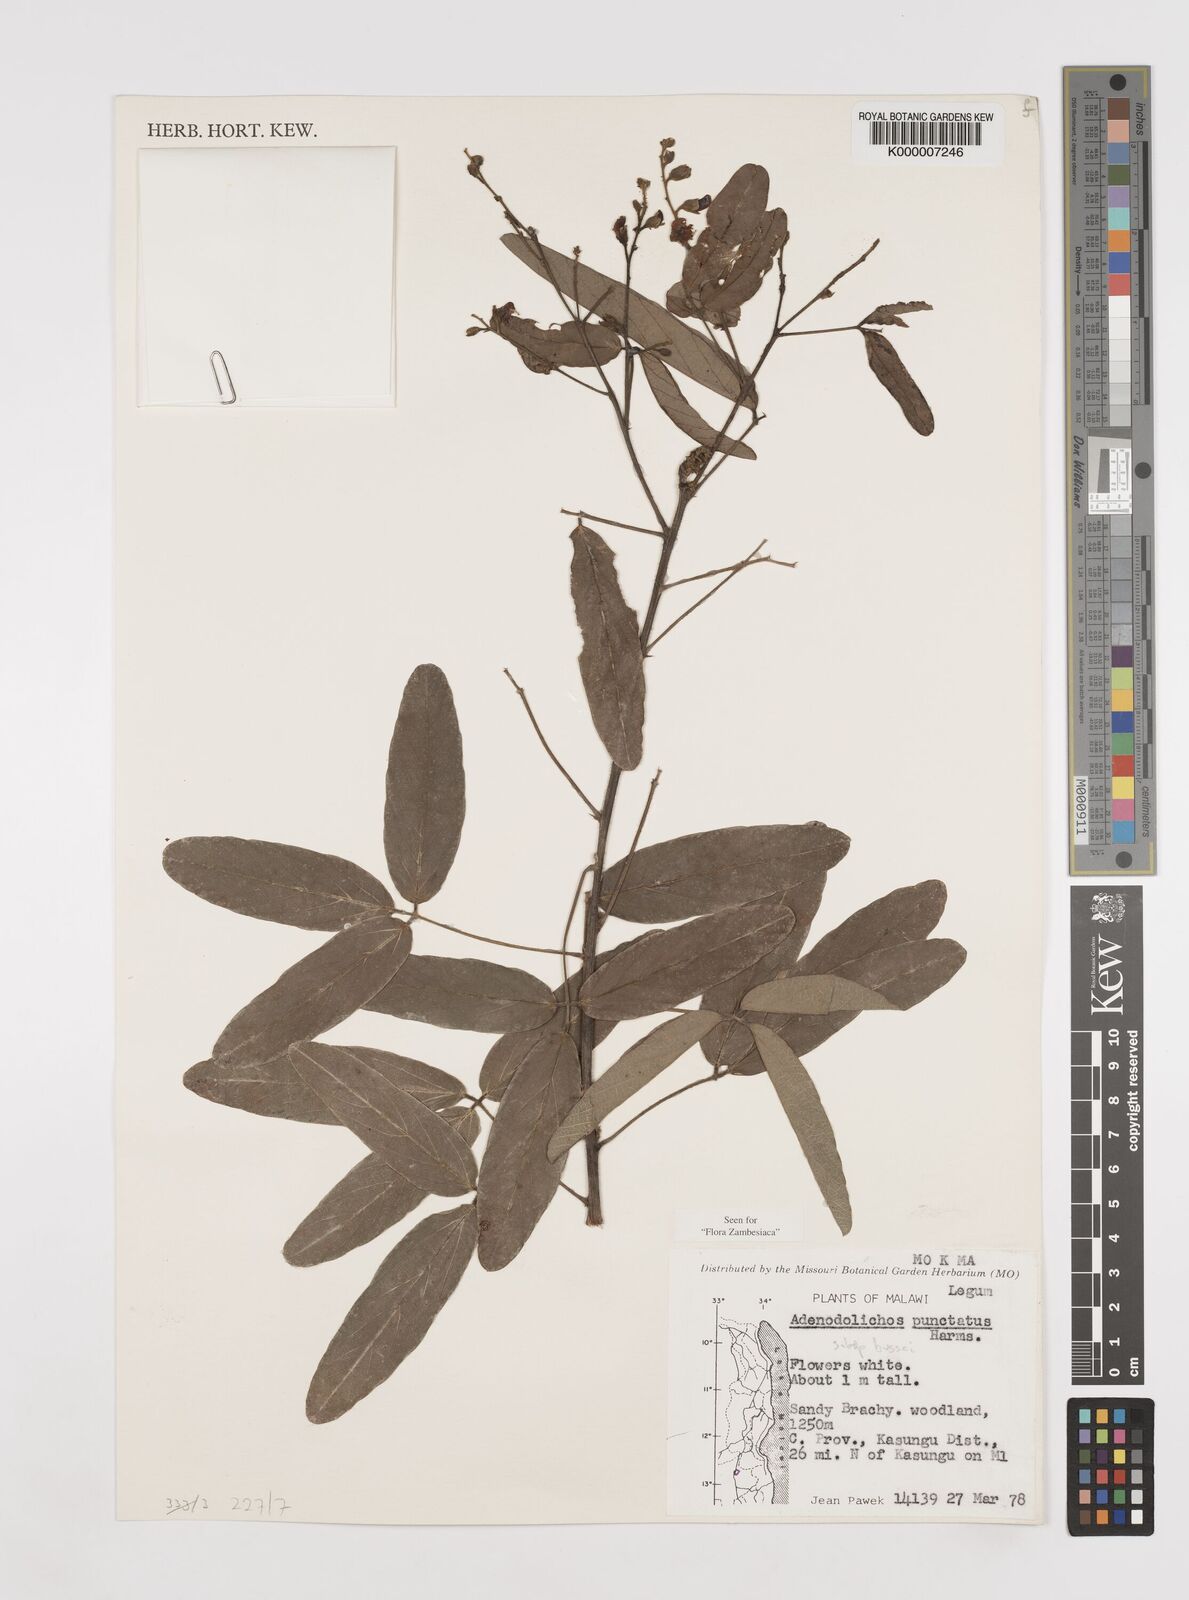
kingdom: Plantae
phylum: Tracheophyta
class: Magnoliopsida
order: Fabales
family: Fabaceae
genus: Adenodolichos
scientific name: Adenodolichos punctatus
